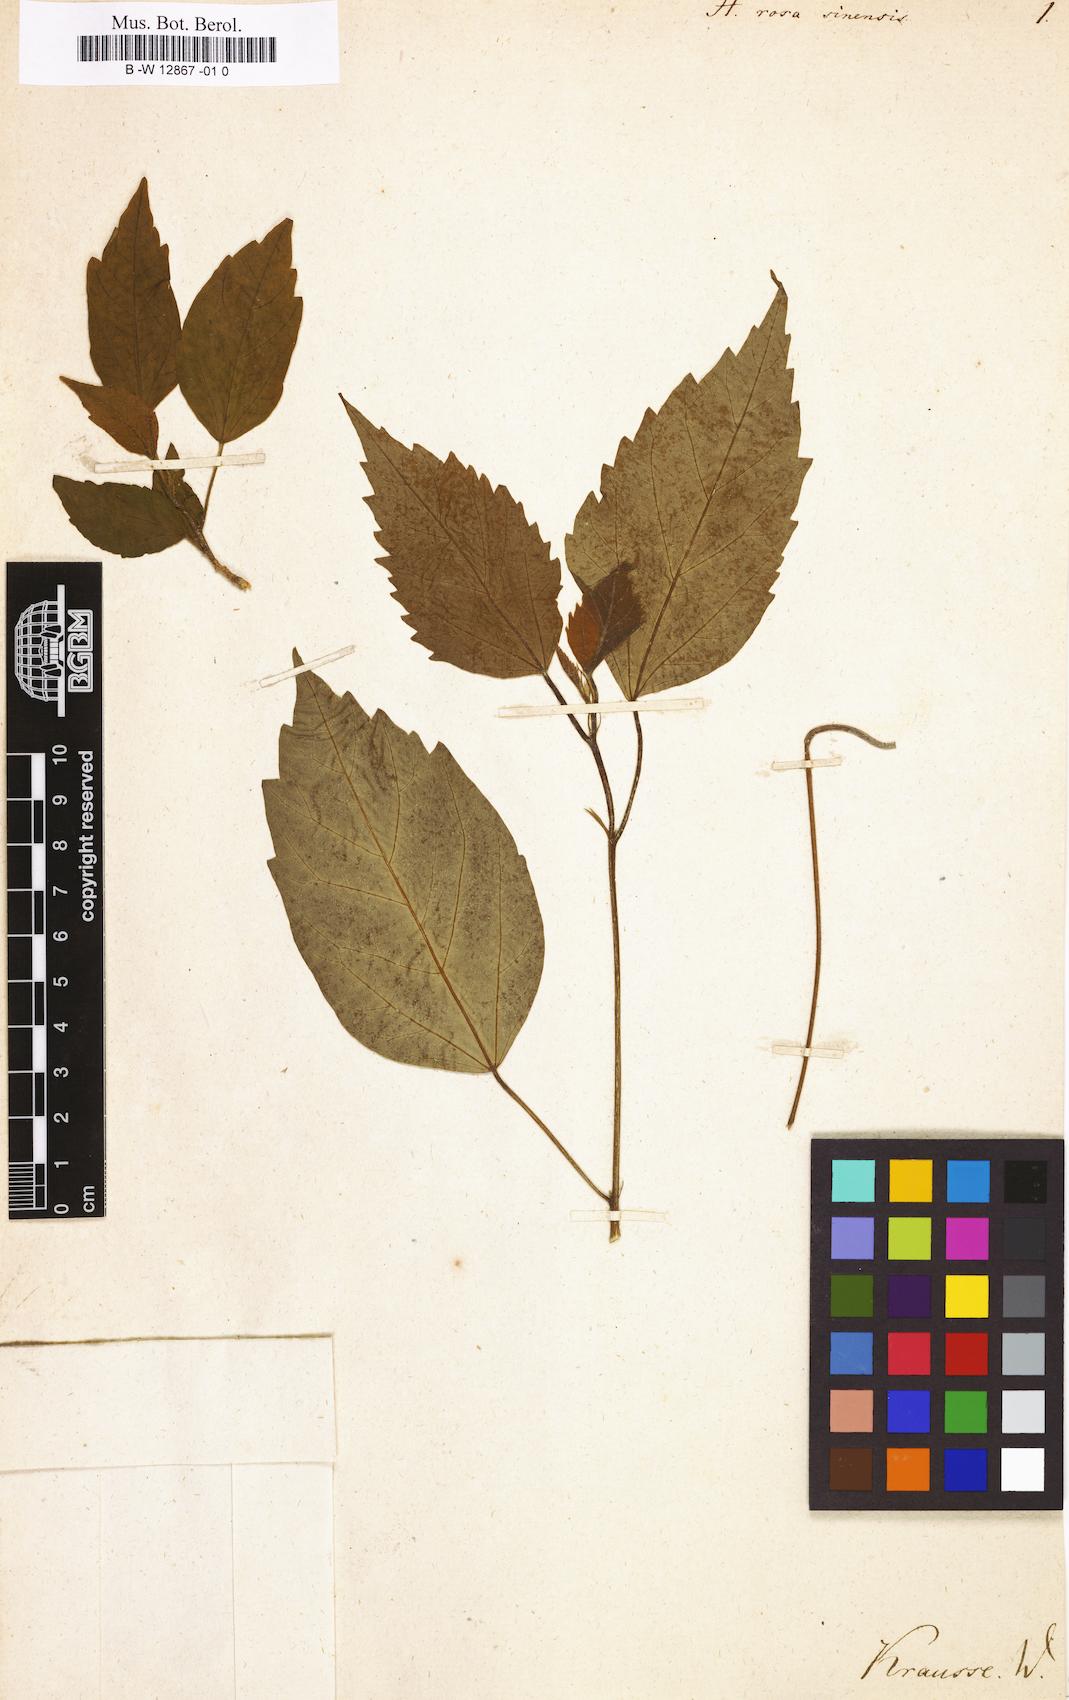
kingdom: Plantae
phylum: Tracheophyta
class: Magnoliopsida
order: Malvales
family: Malvaceae
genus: Hibiscus
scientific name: Hibiscus rosa-sinensis
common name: Hibiscus
